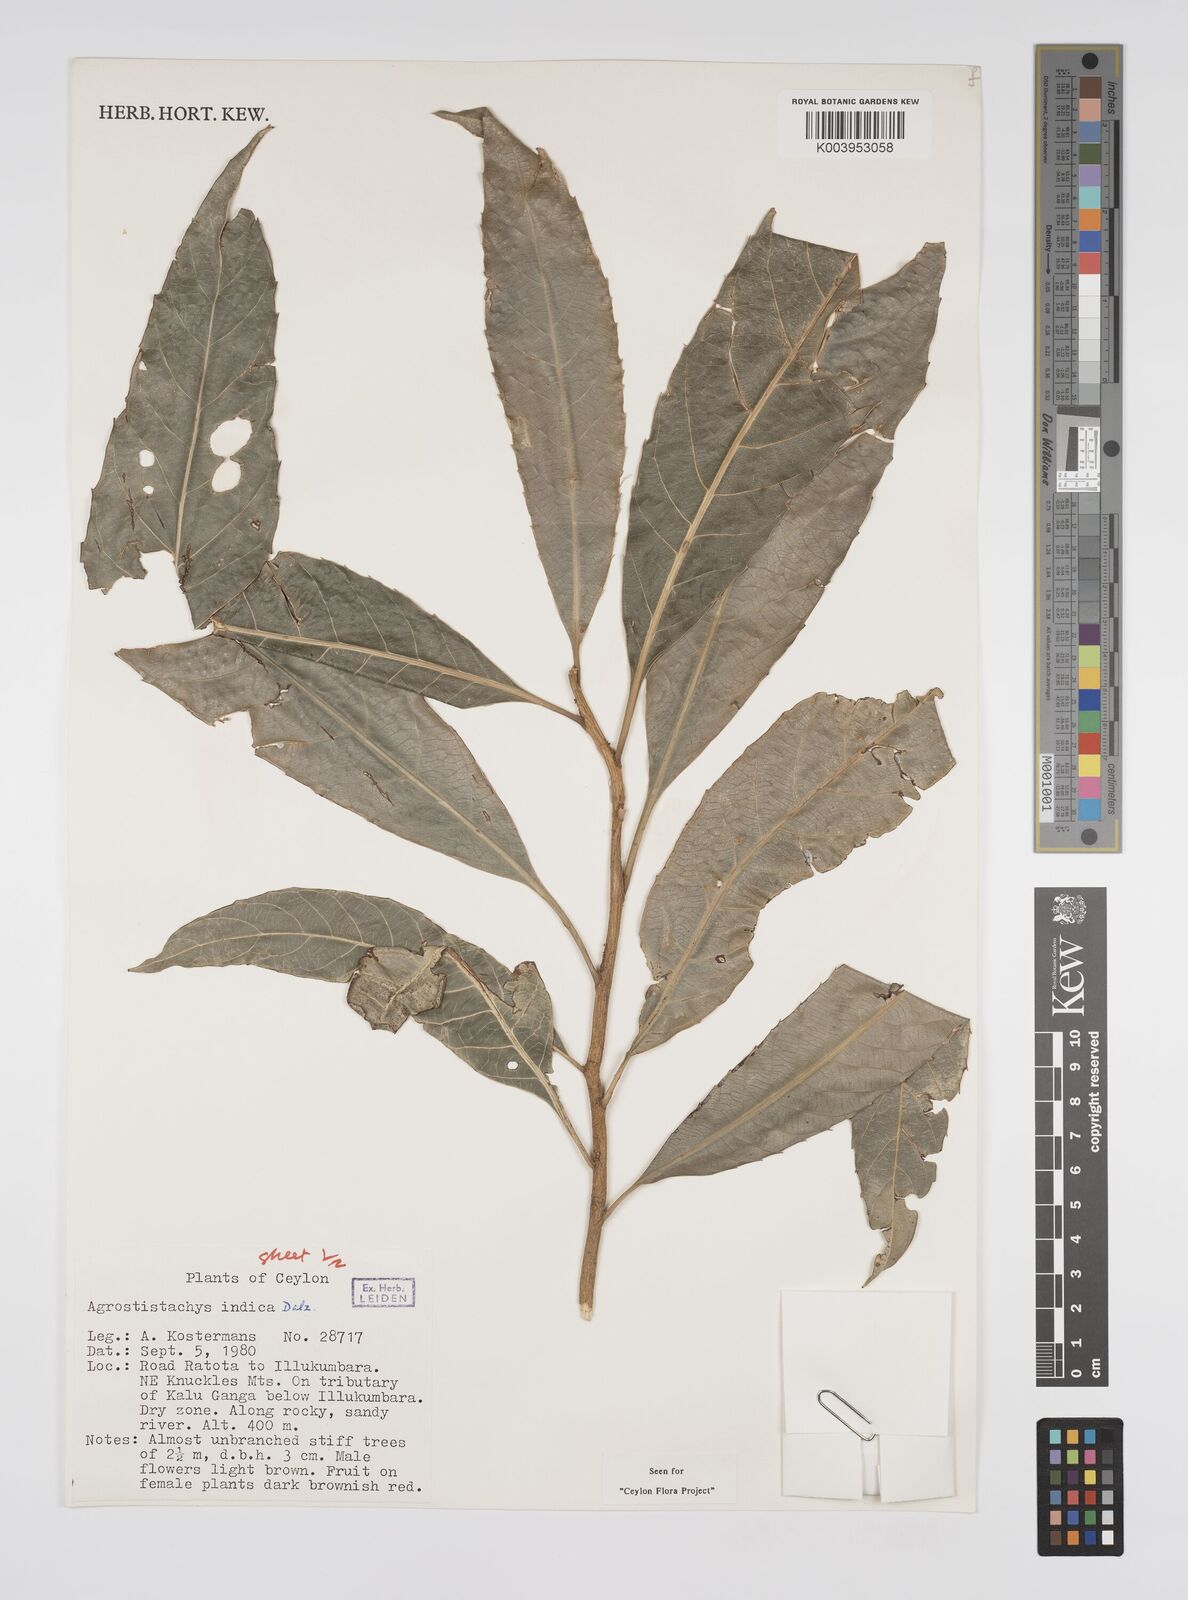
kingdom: Plantae
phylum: Tracheophyta
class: Magnoliopsida
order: Malpighiales
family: Euphorbiaceae
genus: Agrostistachys
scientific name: Agrostistachys indica
